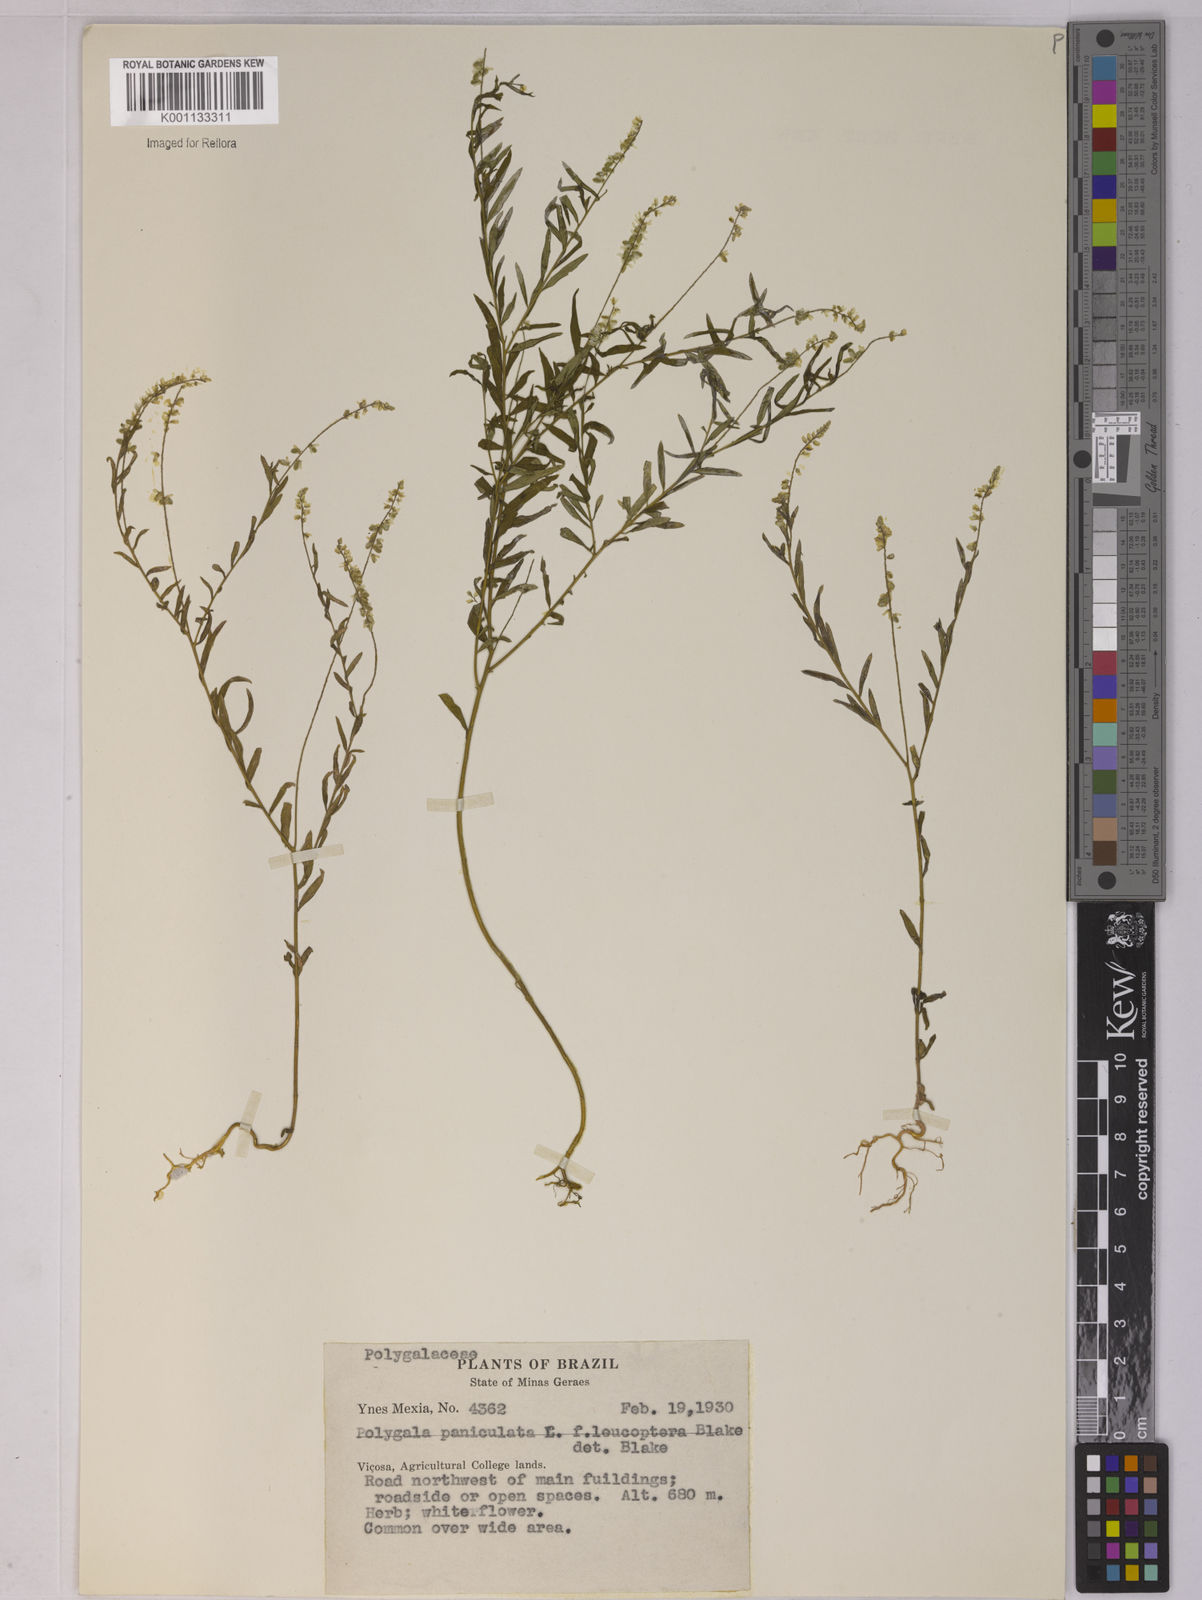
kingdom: Plantae
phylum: Tracheophyta
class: Magnoliopsida
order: Fabales
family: Polygalaceae
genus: Polygala
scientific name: Polygala paniculata
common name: Orosne
